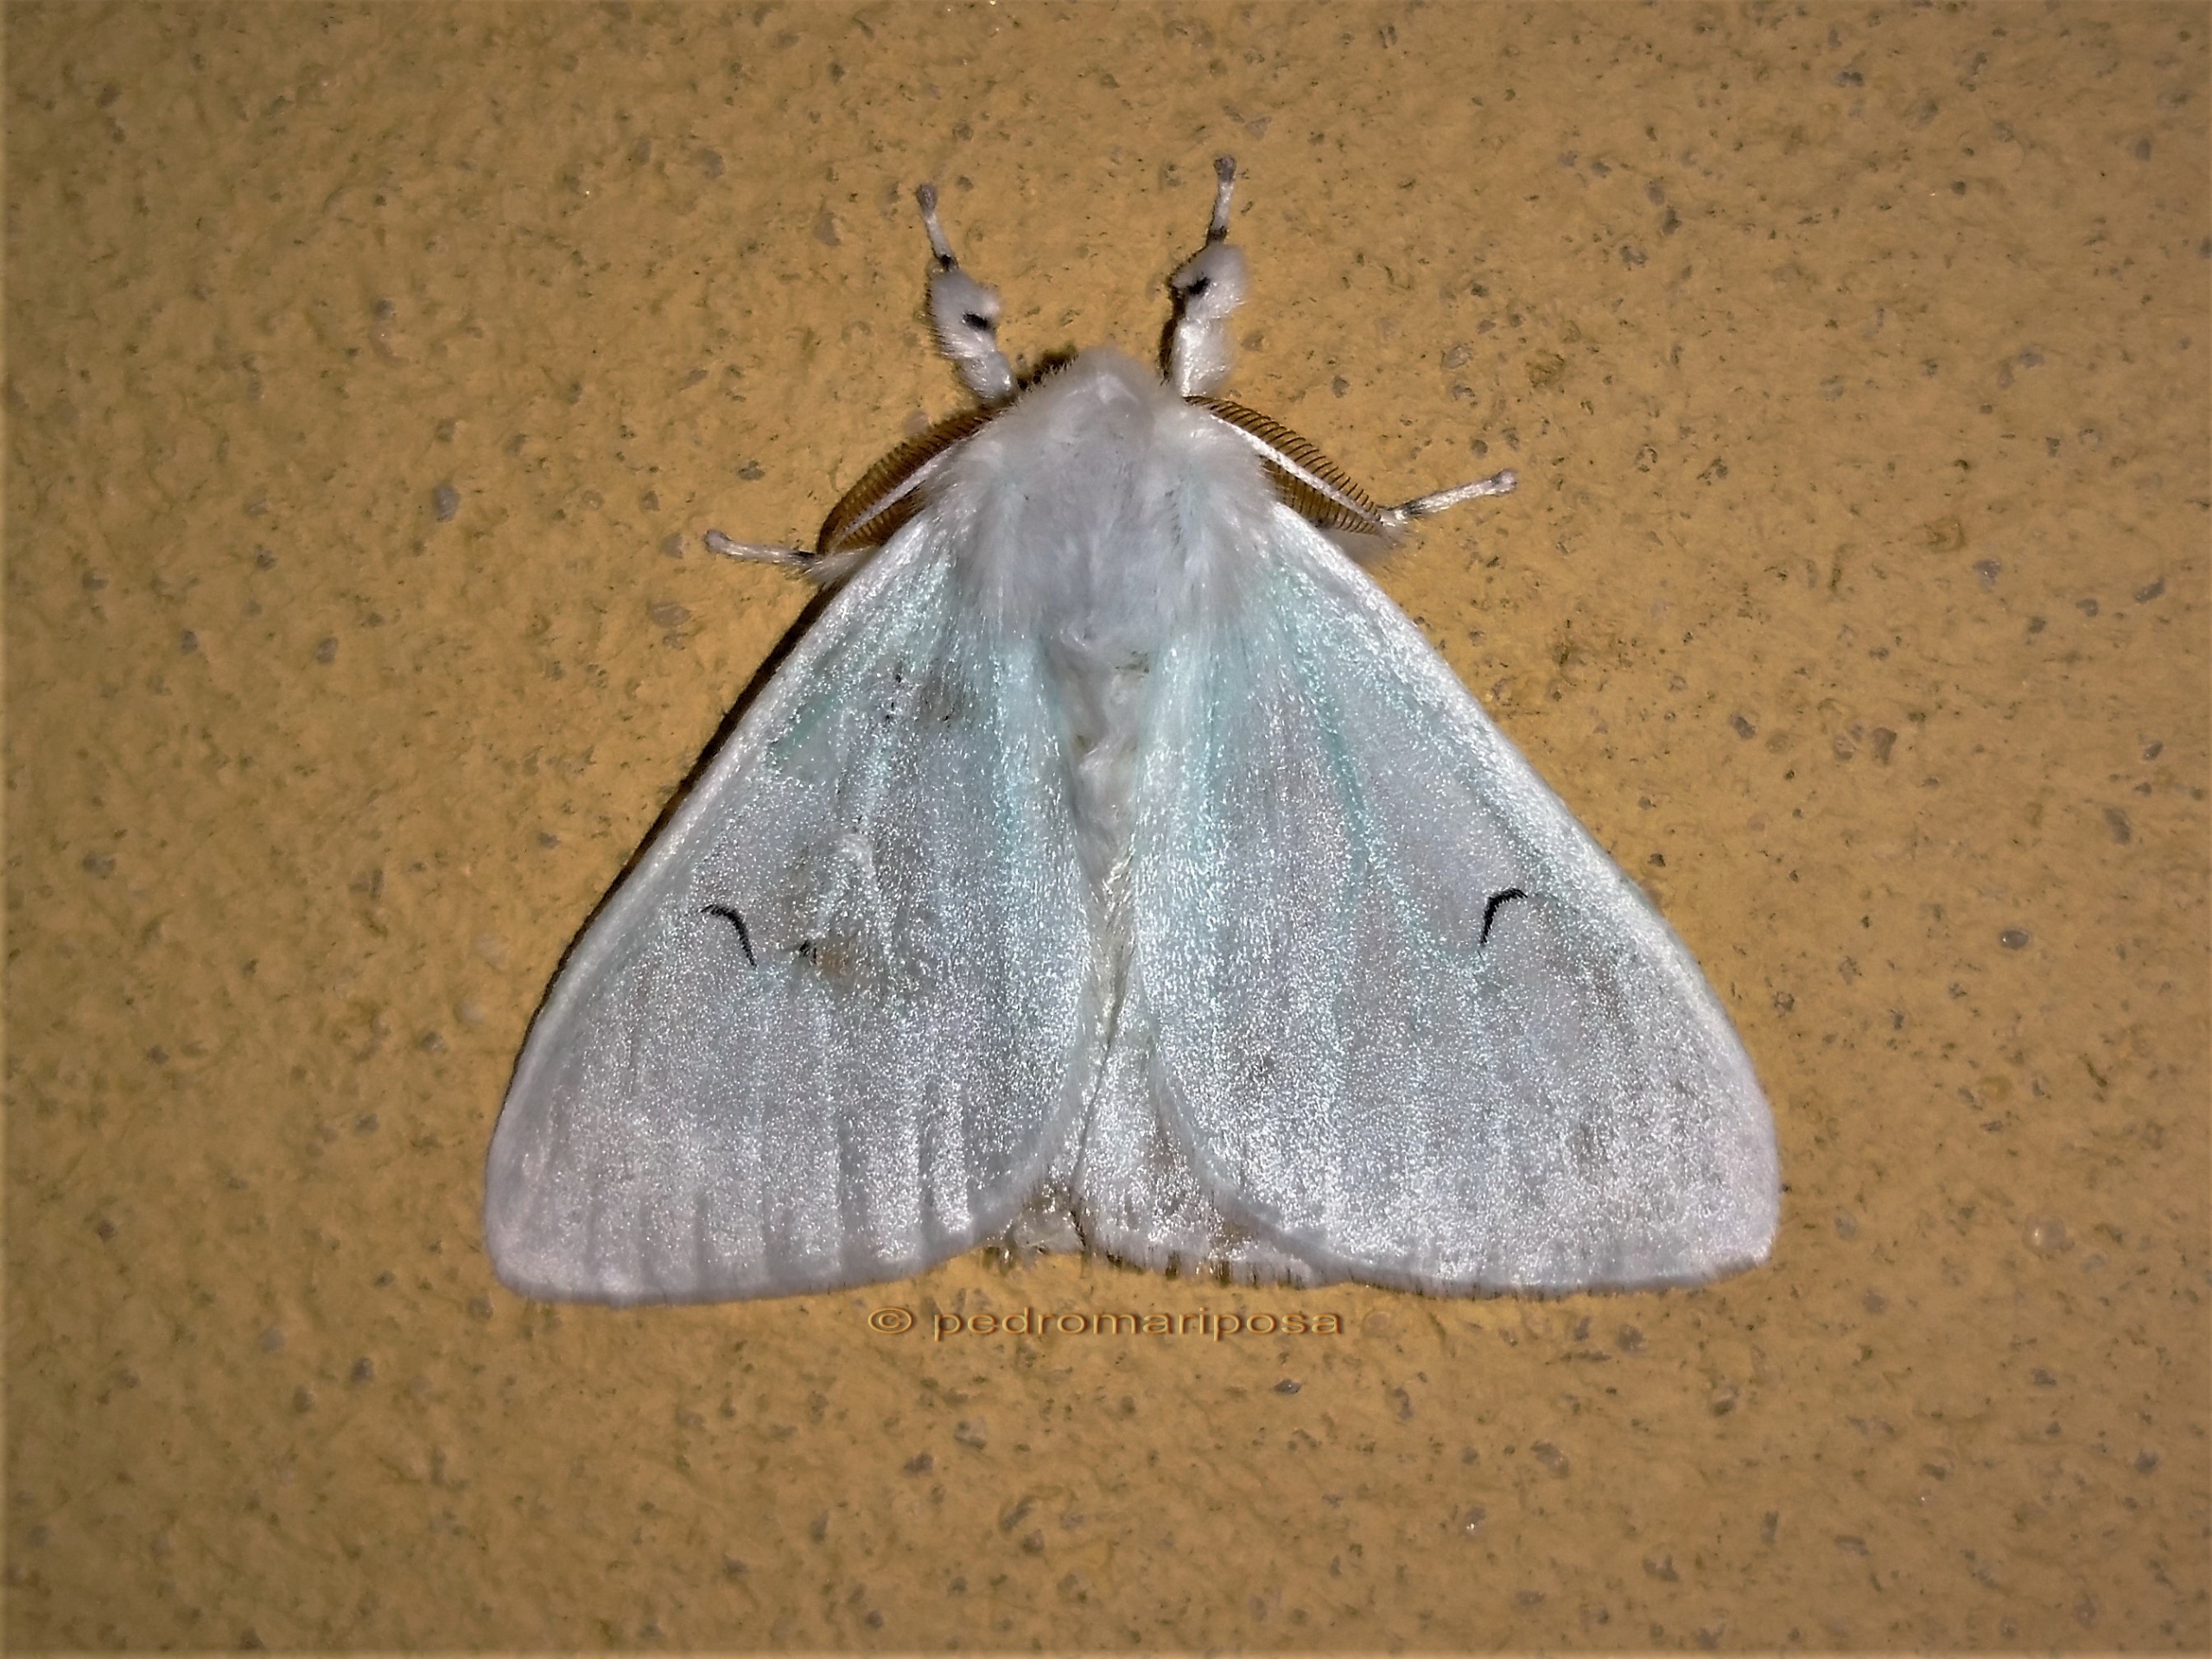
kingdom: Animalia
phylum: Arthropoda
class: Insecta
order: Lepidoptera
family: Erebidae
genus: Arctornis
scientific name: Arctornis l-nigrum
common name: Det sorte l
